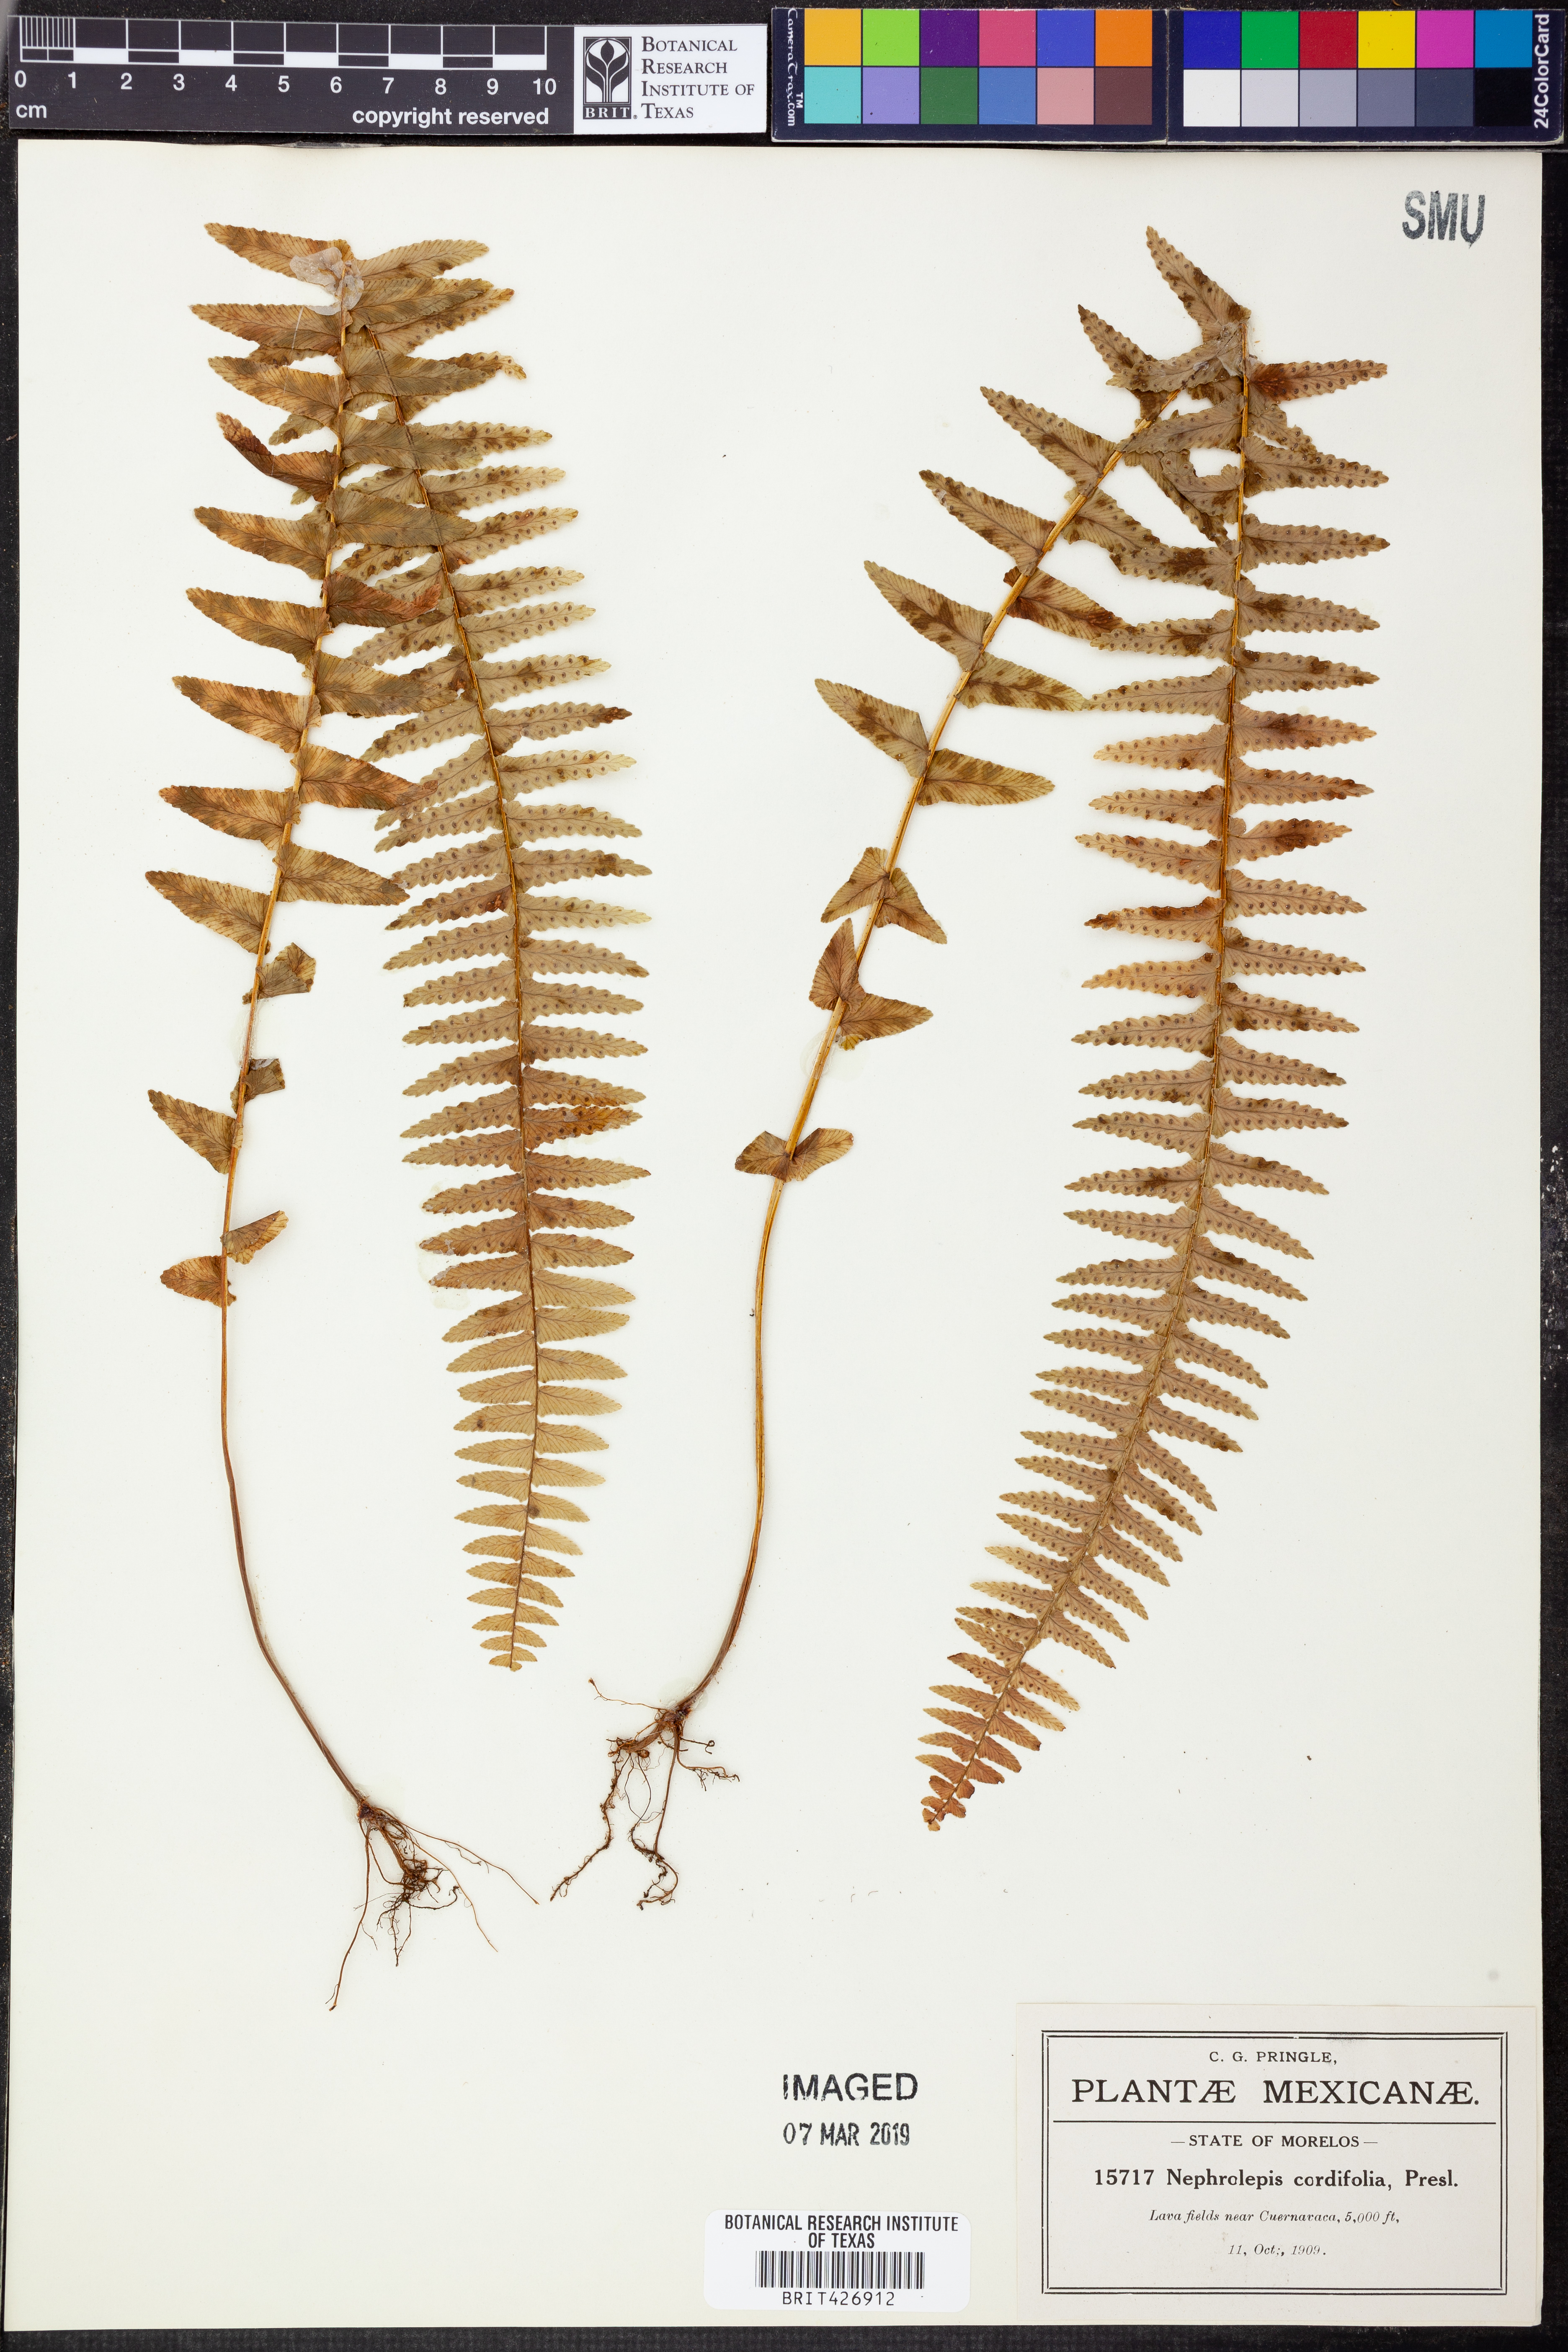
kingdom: Plantae
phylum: Tracheophyta
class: Polypodiopsida
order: Polypodiales
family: Nephrolepidaceae
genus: Nephrolepis
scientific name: Nephrolepis cordifolia
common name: Narrow swordfern
